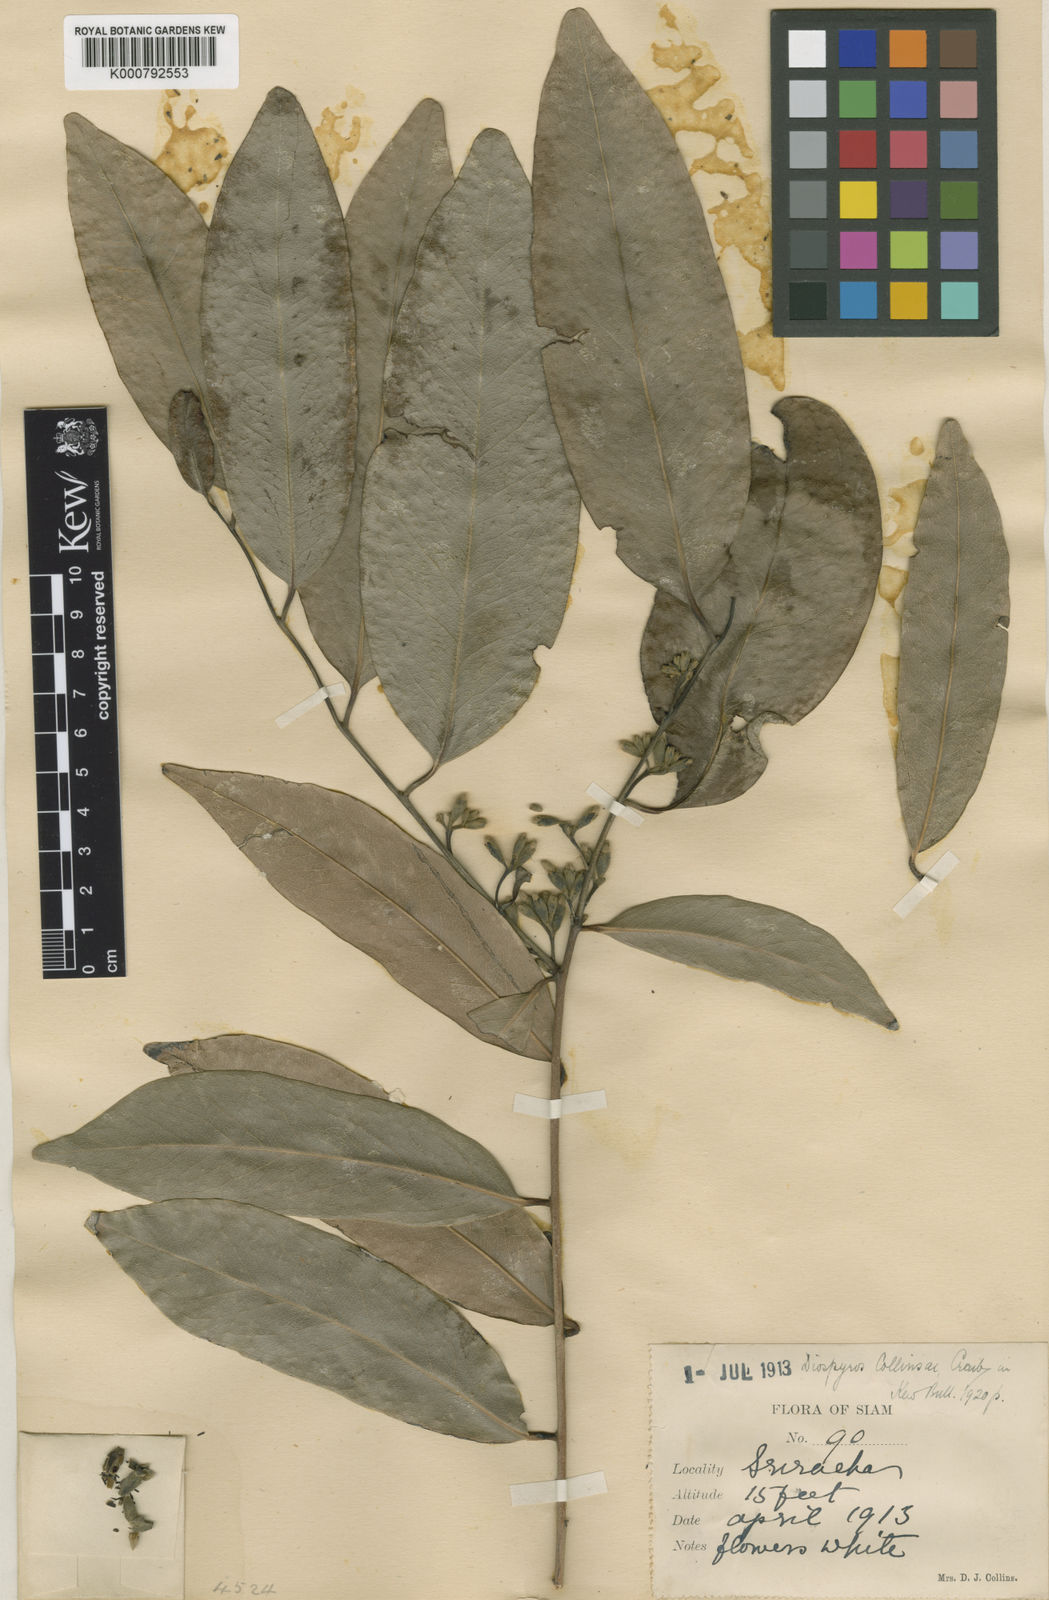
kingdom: Plantae
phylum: Tracheophyta
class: Magnoliopsida
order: Ericales
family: Ebenaceae
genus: Diospyros
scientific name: Diospyros collinsiae
